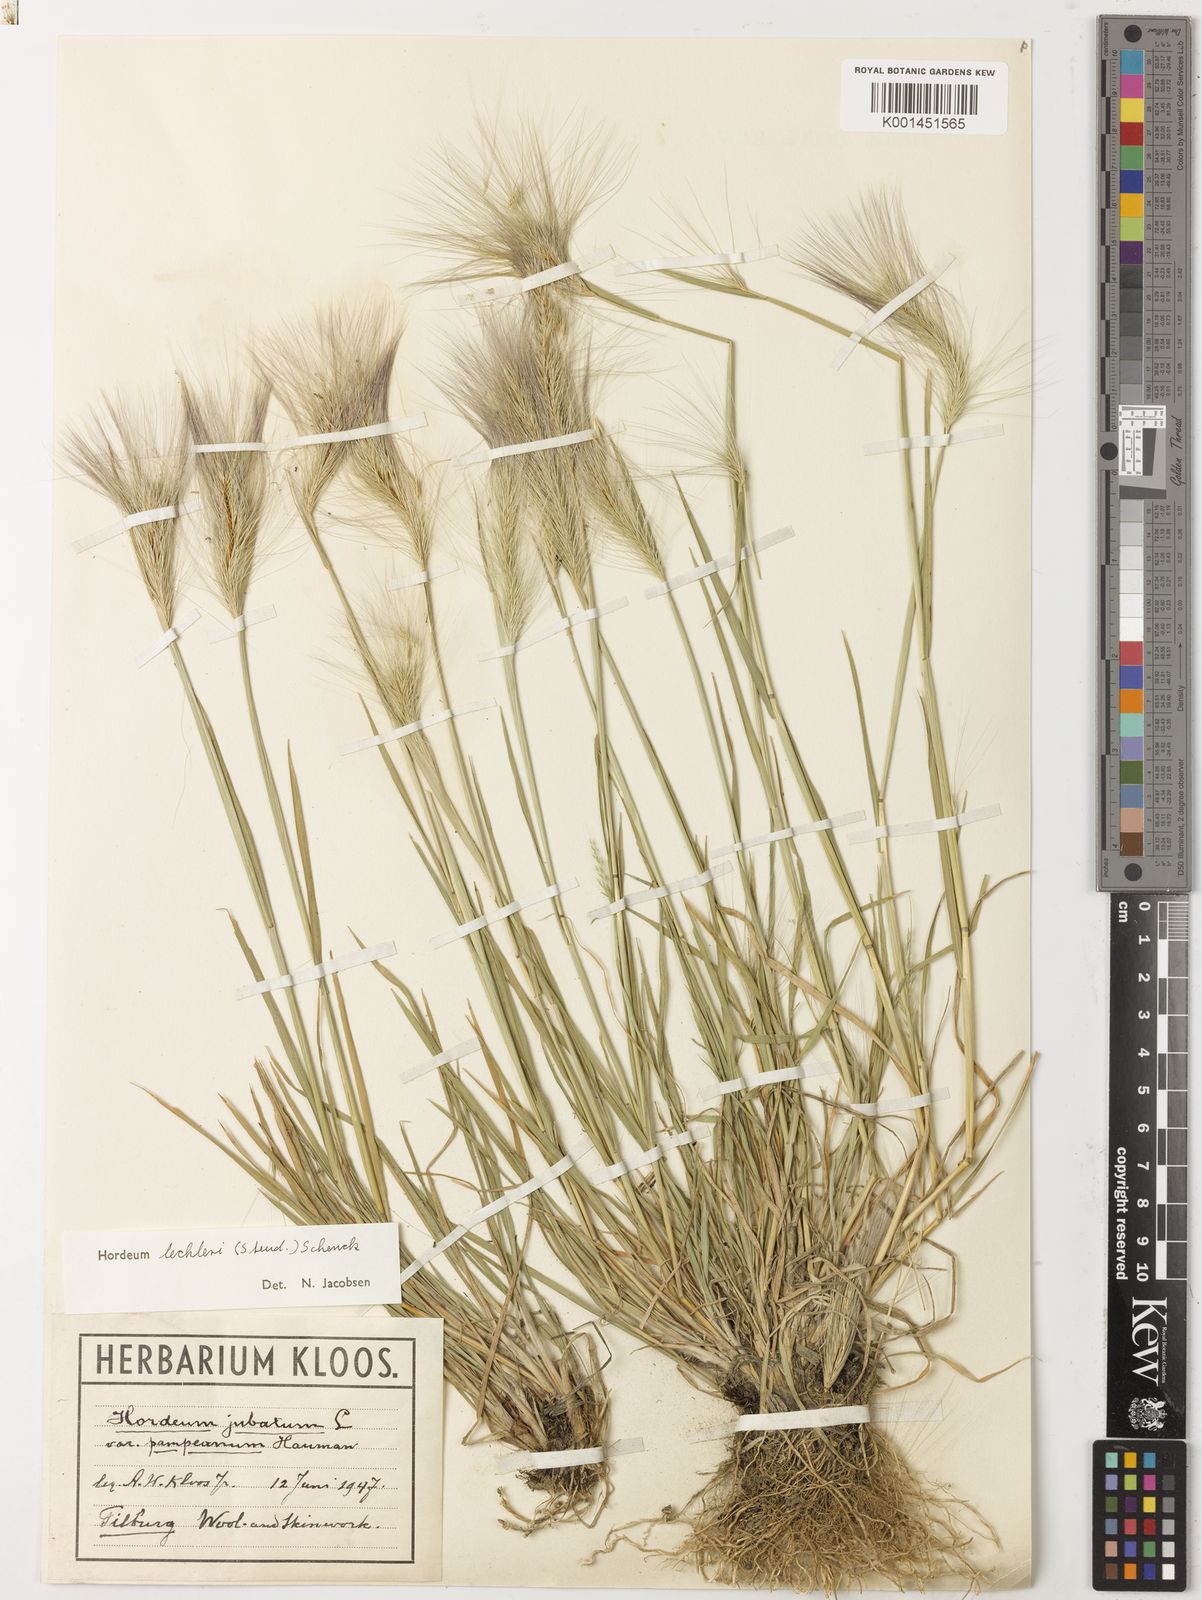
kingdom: Plantae
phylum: Tracheophyta
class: Liliopsida
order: Poales
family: Poaceae
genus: Hordeum
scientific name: Hordeum lechleri
